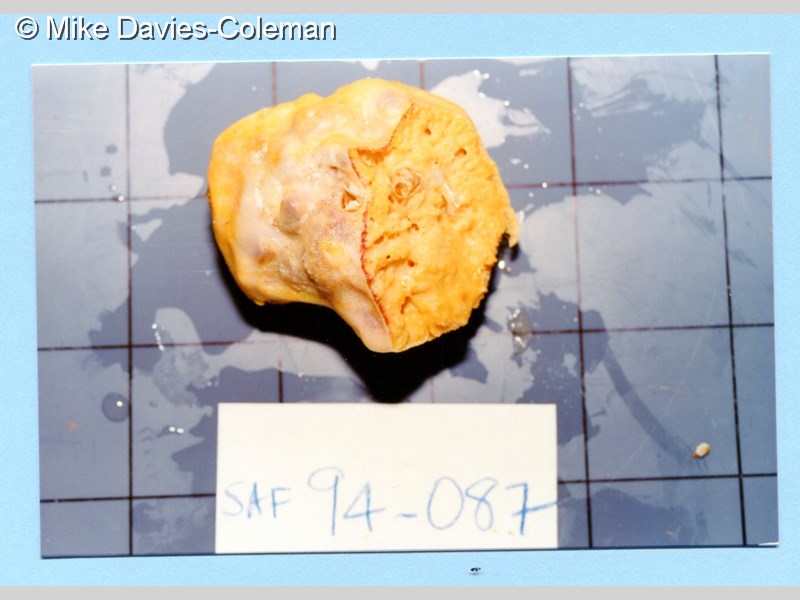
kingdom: Animalia
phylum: Porifera
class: Demospongiae
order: Tetractinellida
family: Ancorinidae
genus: Stelletta
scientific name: Stelletta
